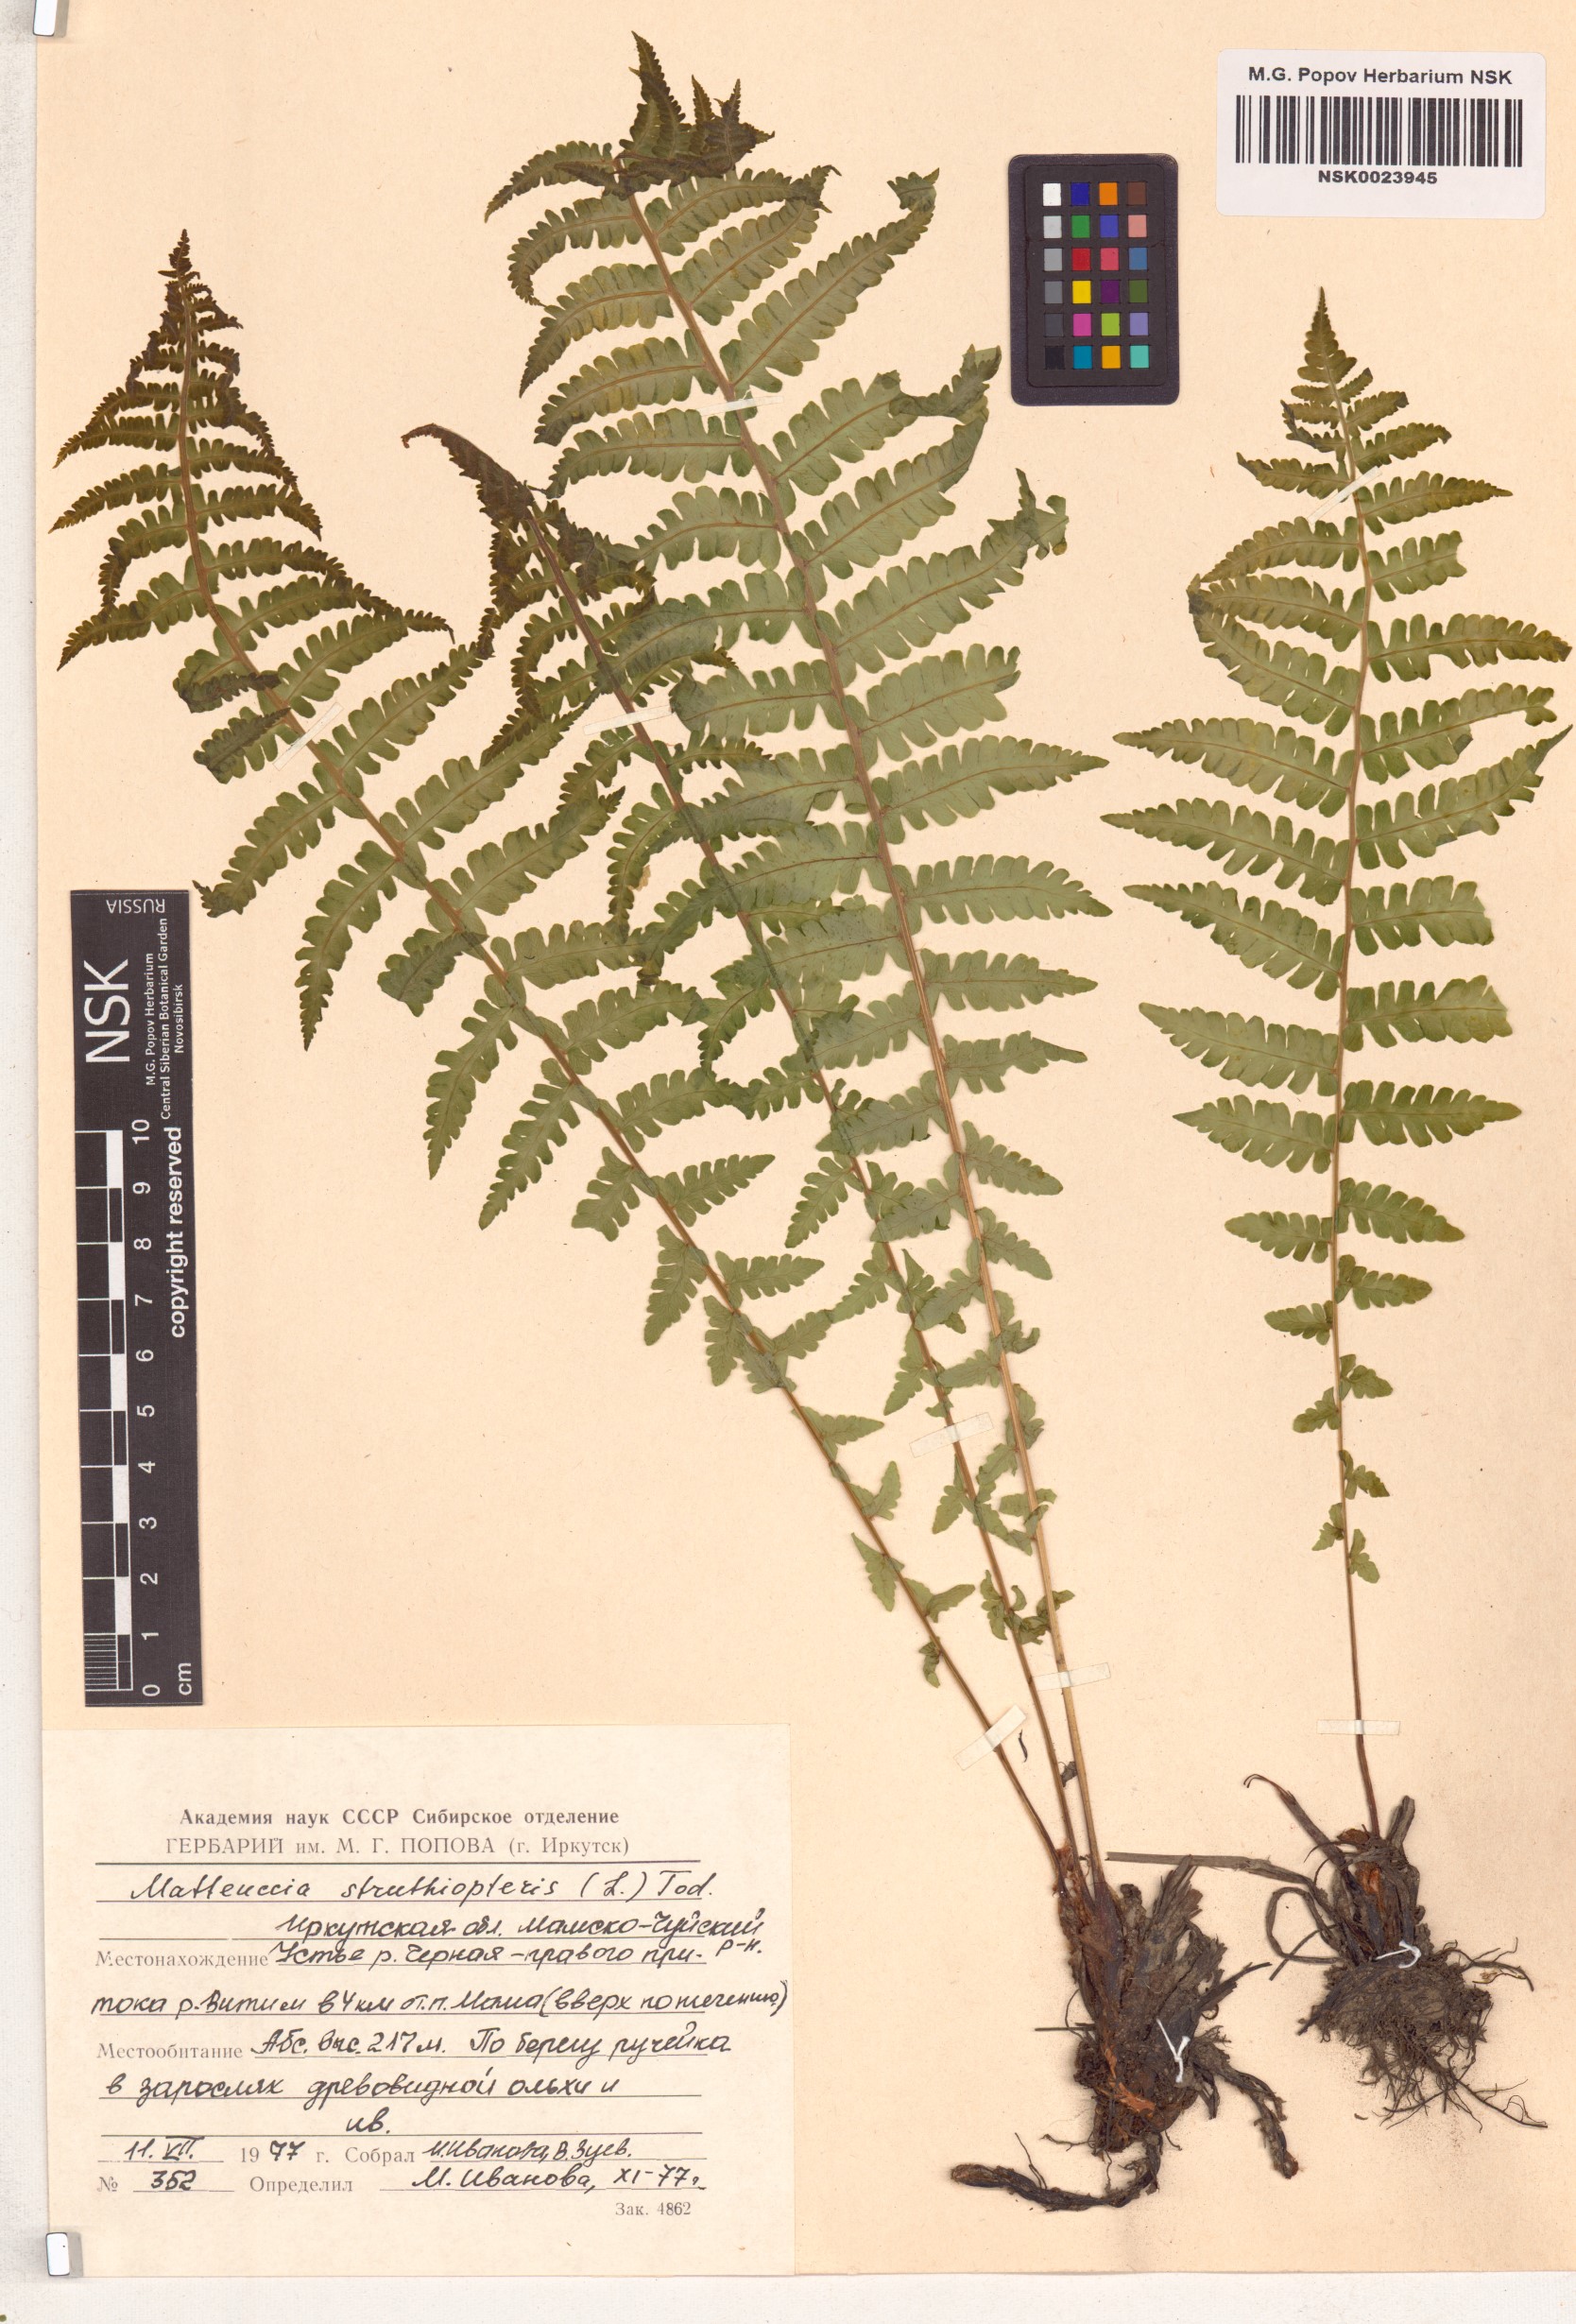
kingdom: Plantae
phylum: Tracheophyta
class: Polypodiopsida
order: Polypodiales
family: Onocleaceae
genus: Matteuccia
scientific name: Matteuccia struthiopteris
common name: Ostrich fern
